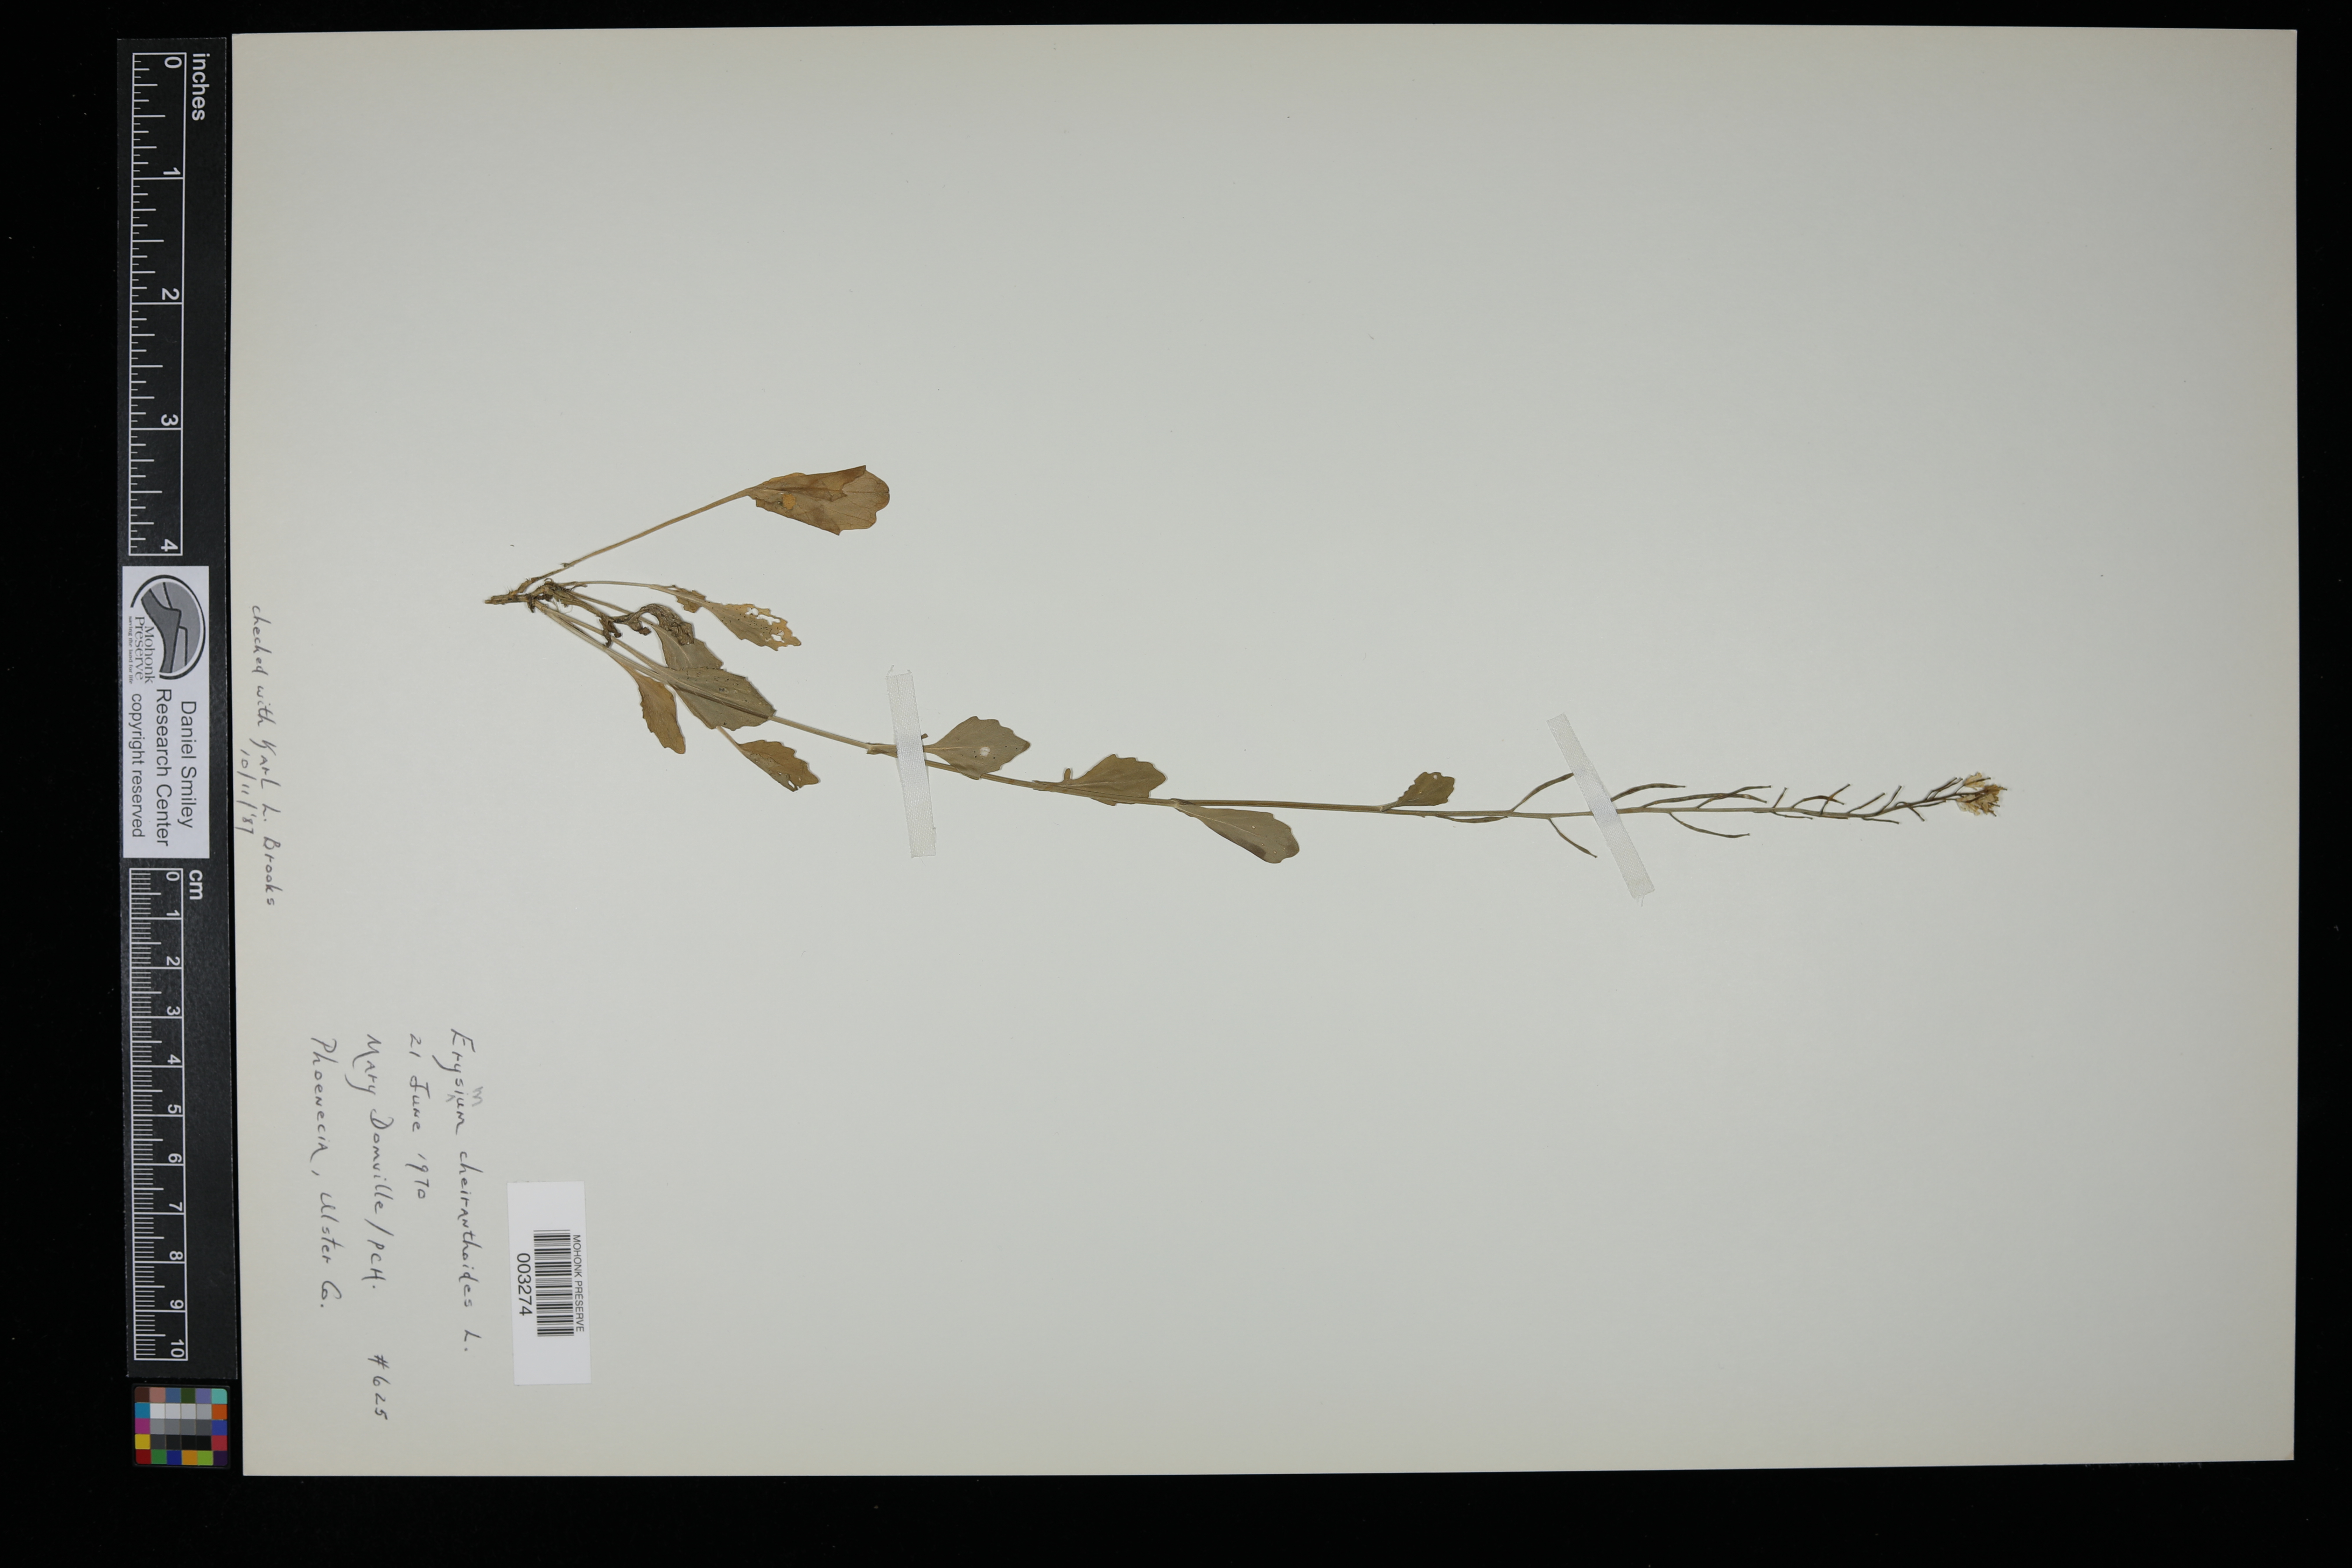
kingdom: Plantae
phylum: Tracheophyta
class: Magnoliopsida
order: Brassicales
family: Brassicaceae
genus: Erysimum
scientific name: Erysimum cheiranthoides
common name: Treacle mustard
